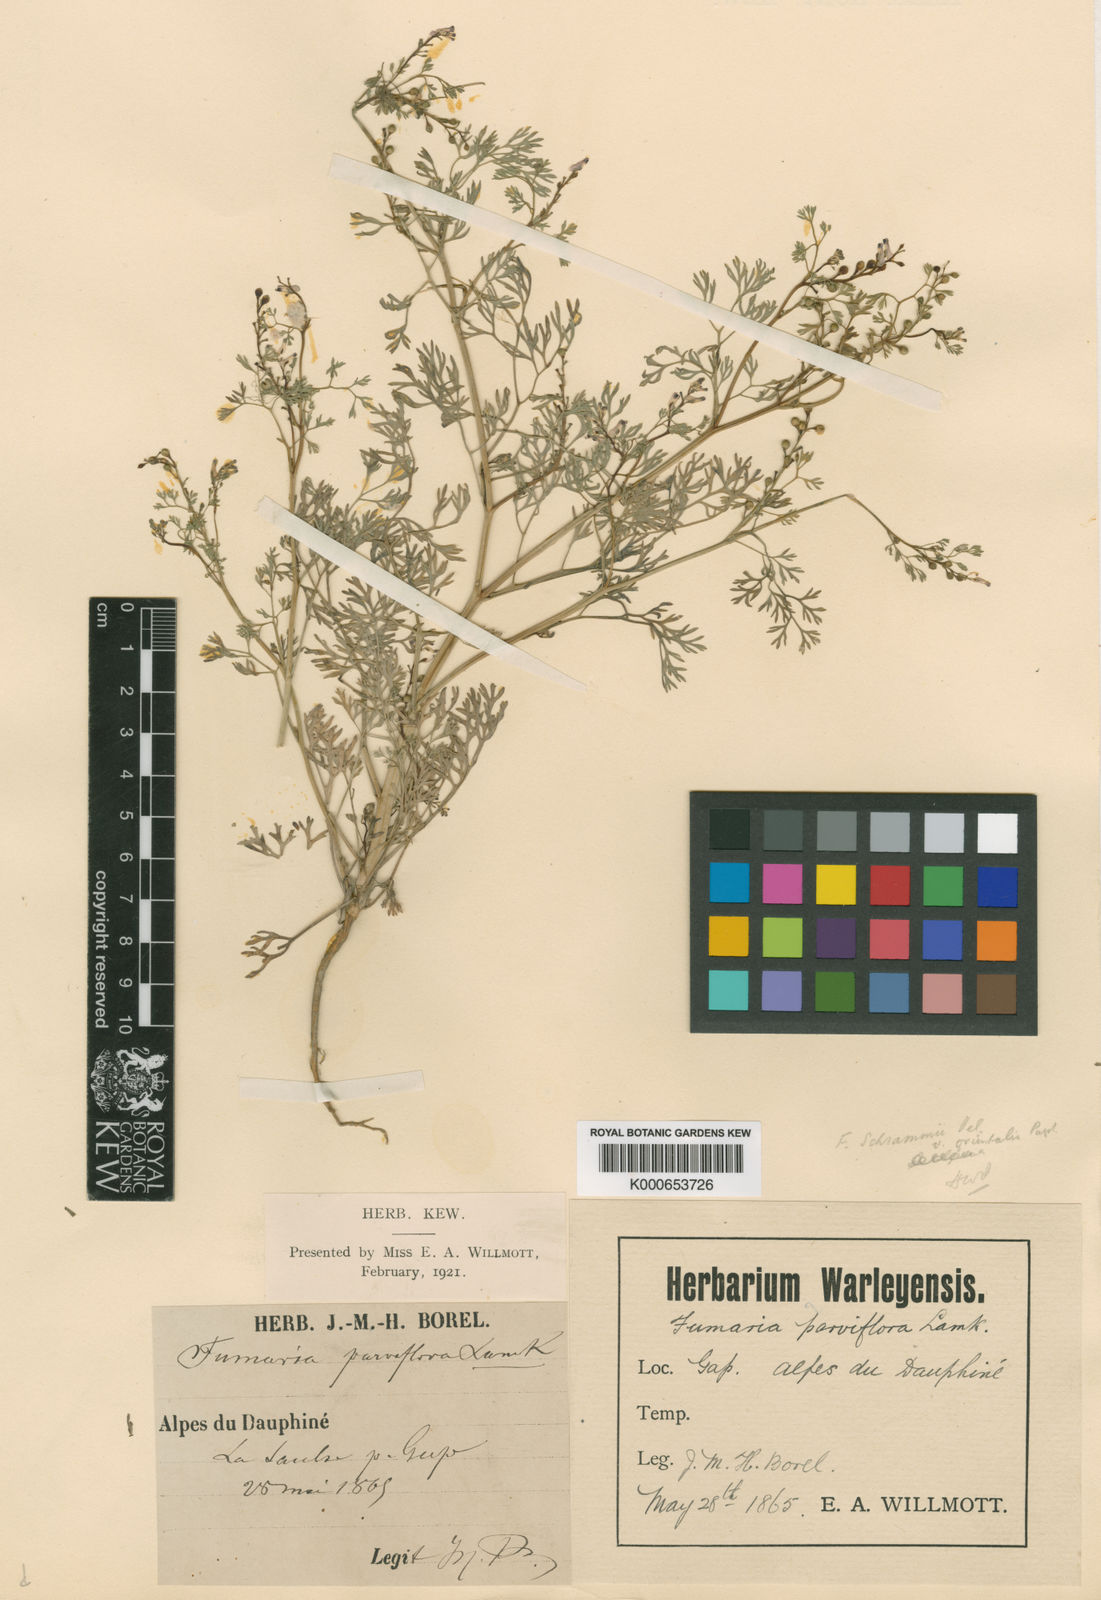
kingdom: Plantae
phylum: Tracheophyta
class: Magnoliopsida
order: Ranunculales
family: Papaveraceae
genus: Fumaria
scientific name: Fumaria
